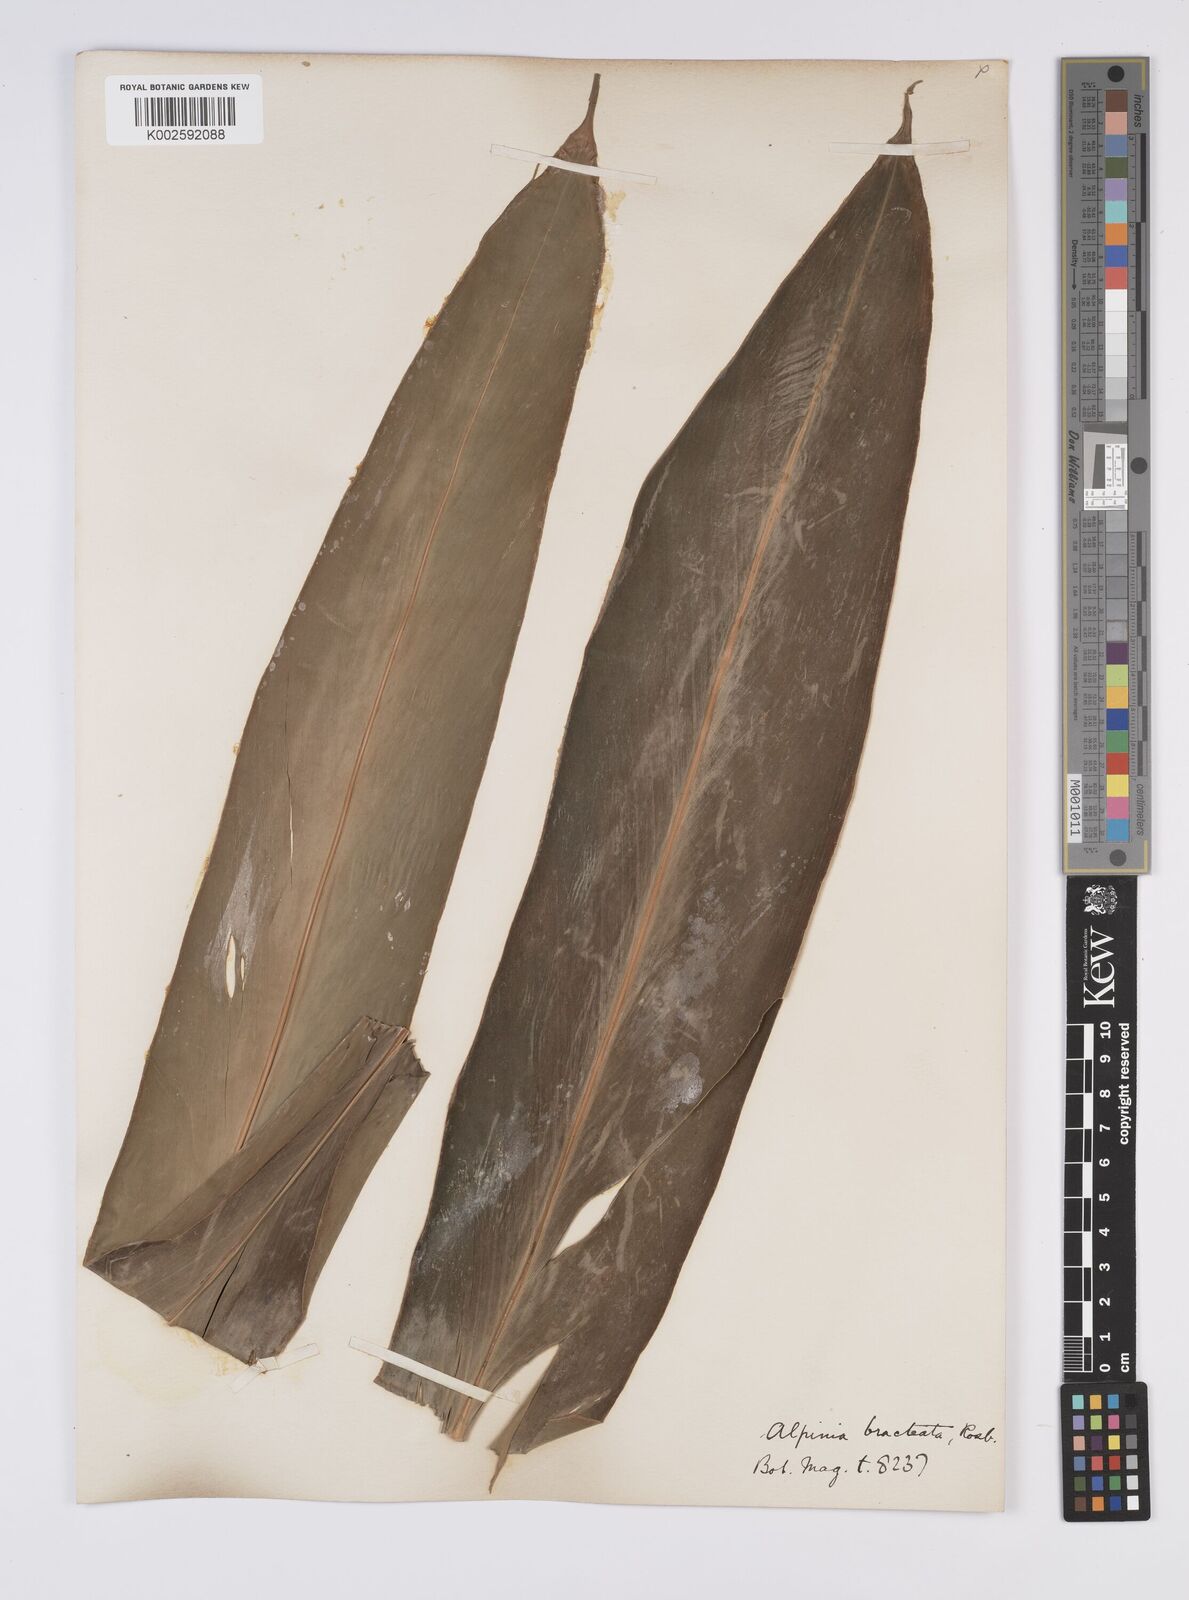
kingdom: Plantae
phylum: Tracheophyta
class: Liliopsida
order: Zingiberales
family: Zingiberaceae
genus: Alpinia
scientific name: Alpinia roxburghii
